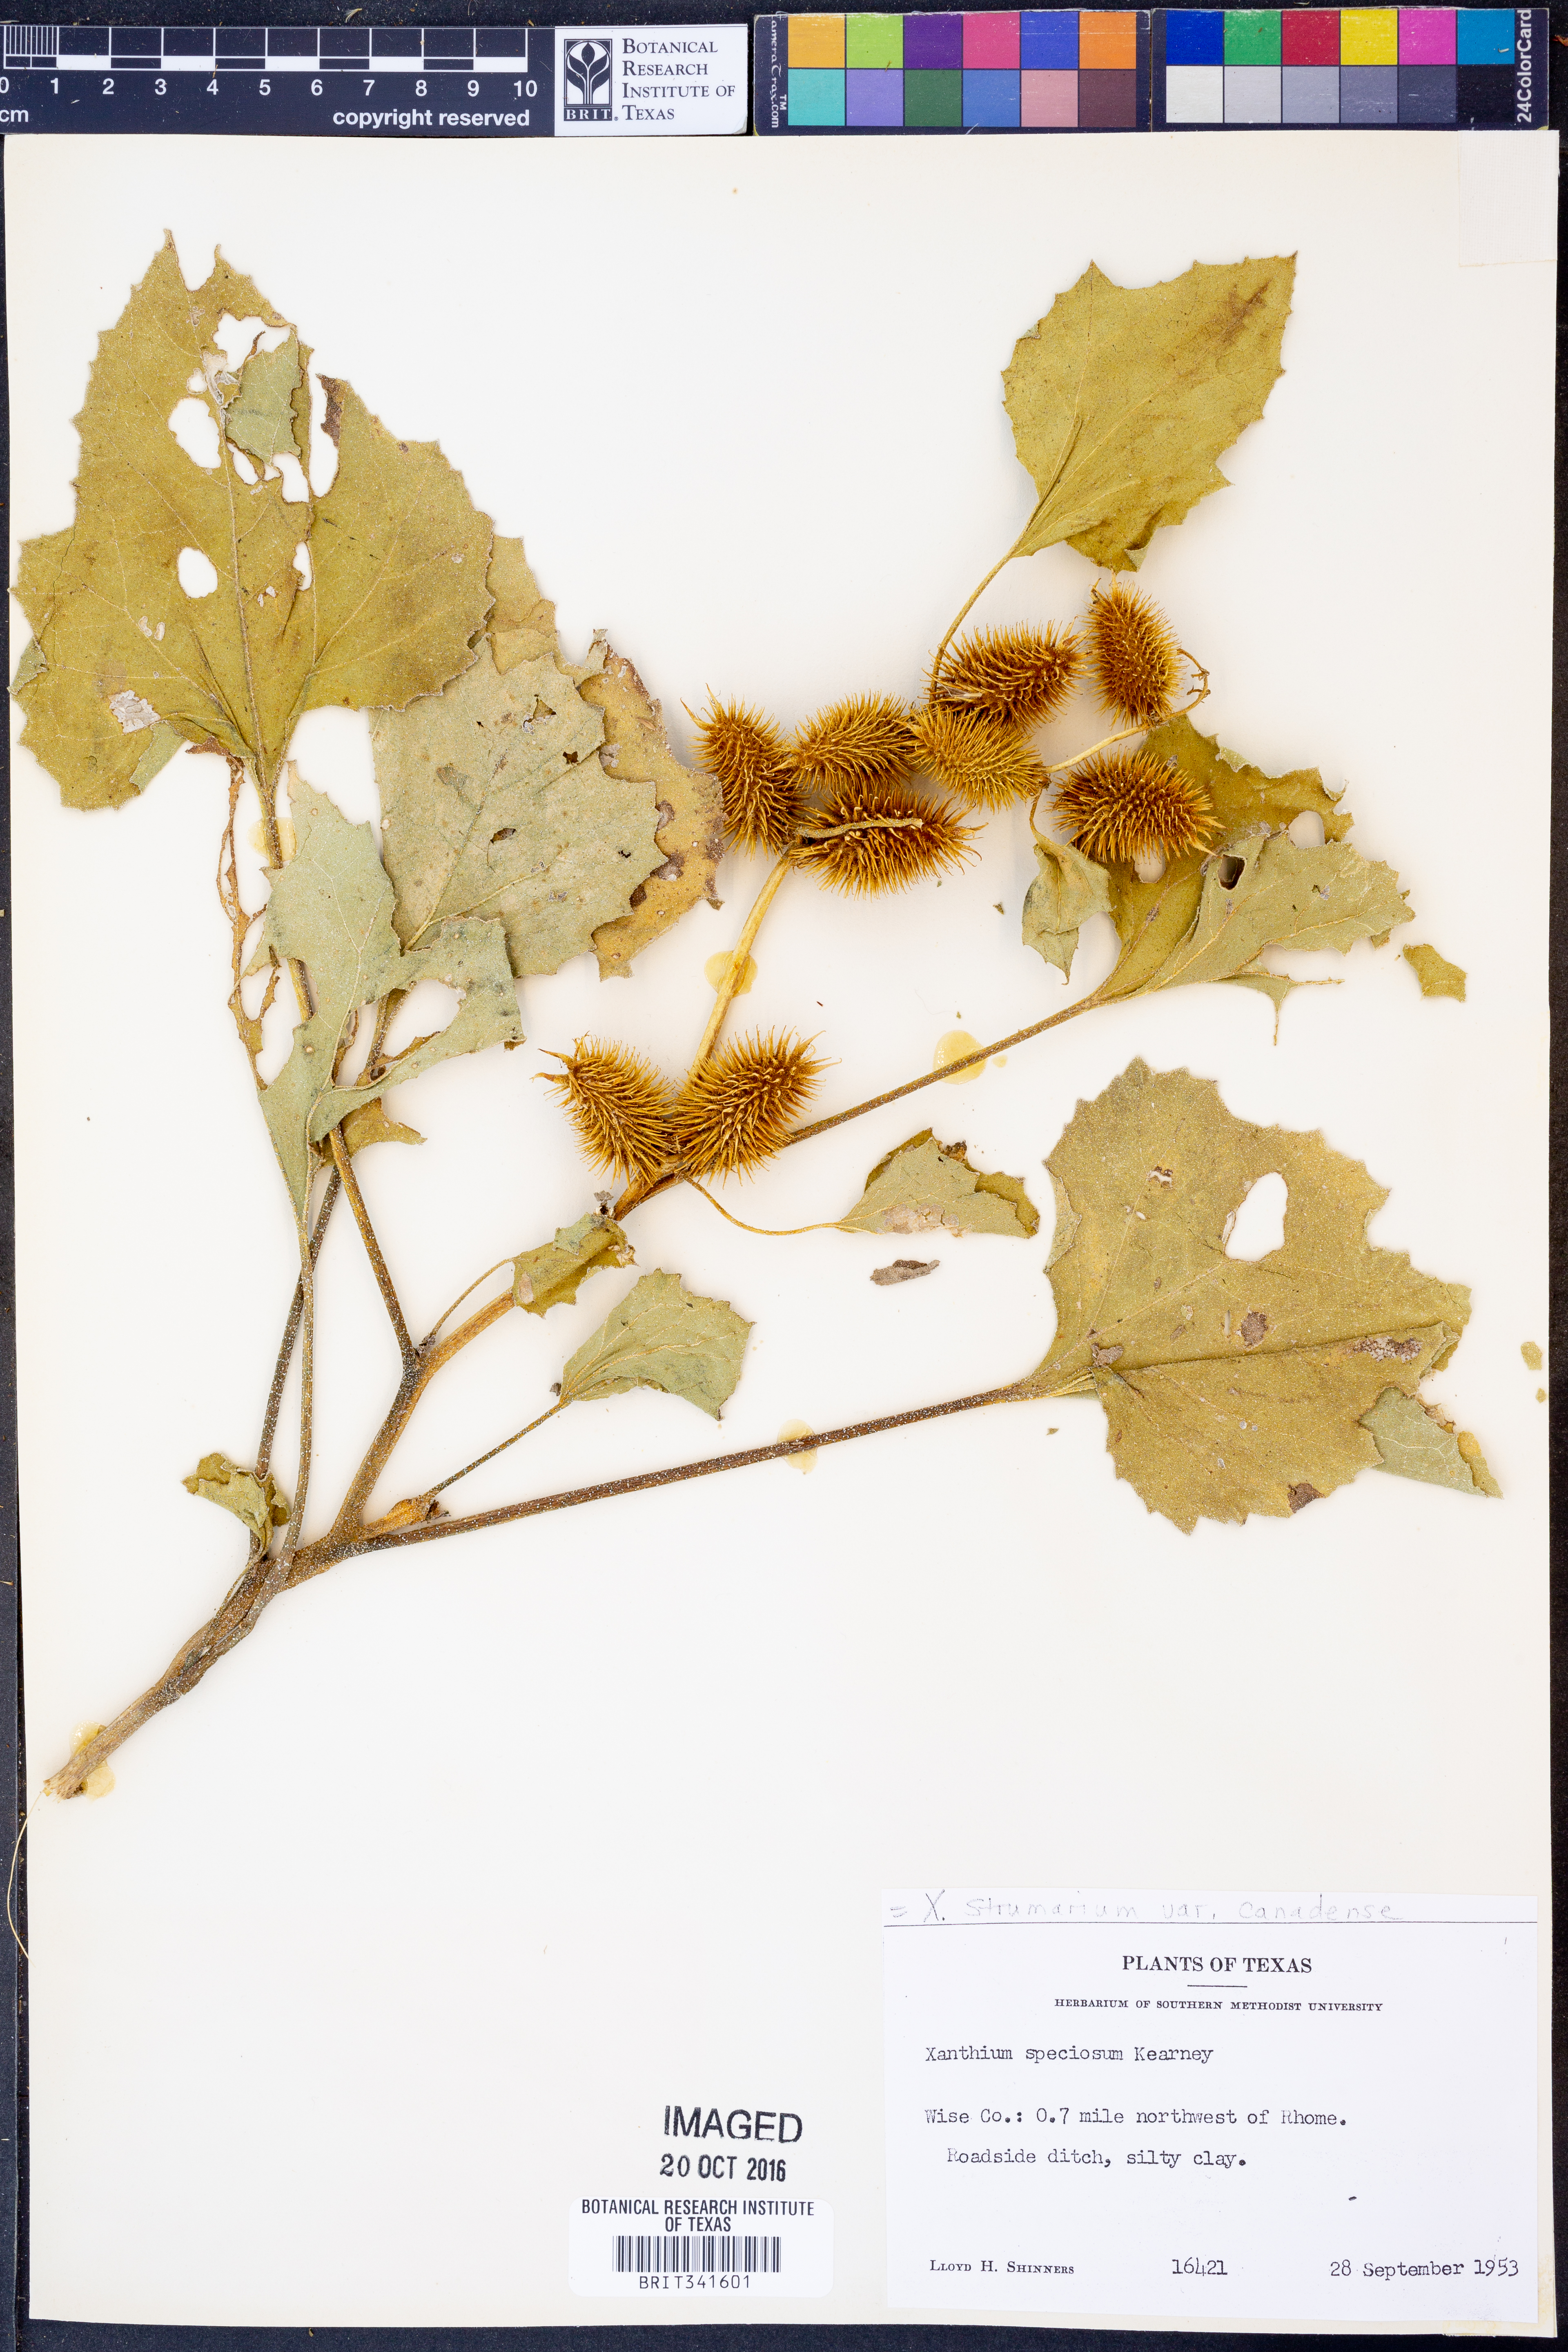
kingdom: Plantae
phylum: Tracheophyta
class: Magnoliopsida
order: Asterales
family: Asteraceae
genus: Xanthium
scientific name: Xanthium orientale
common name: Californian burr
